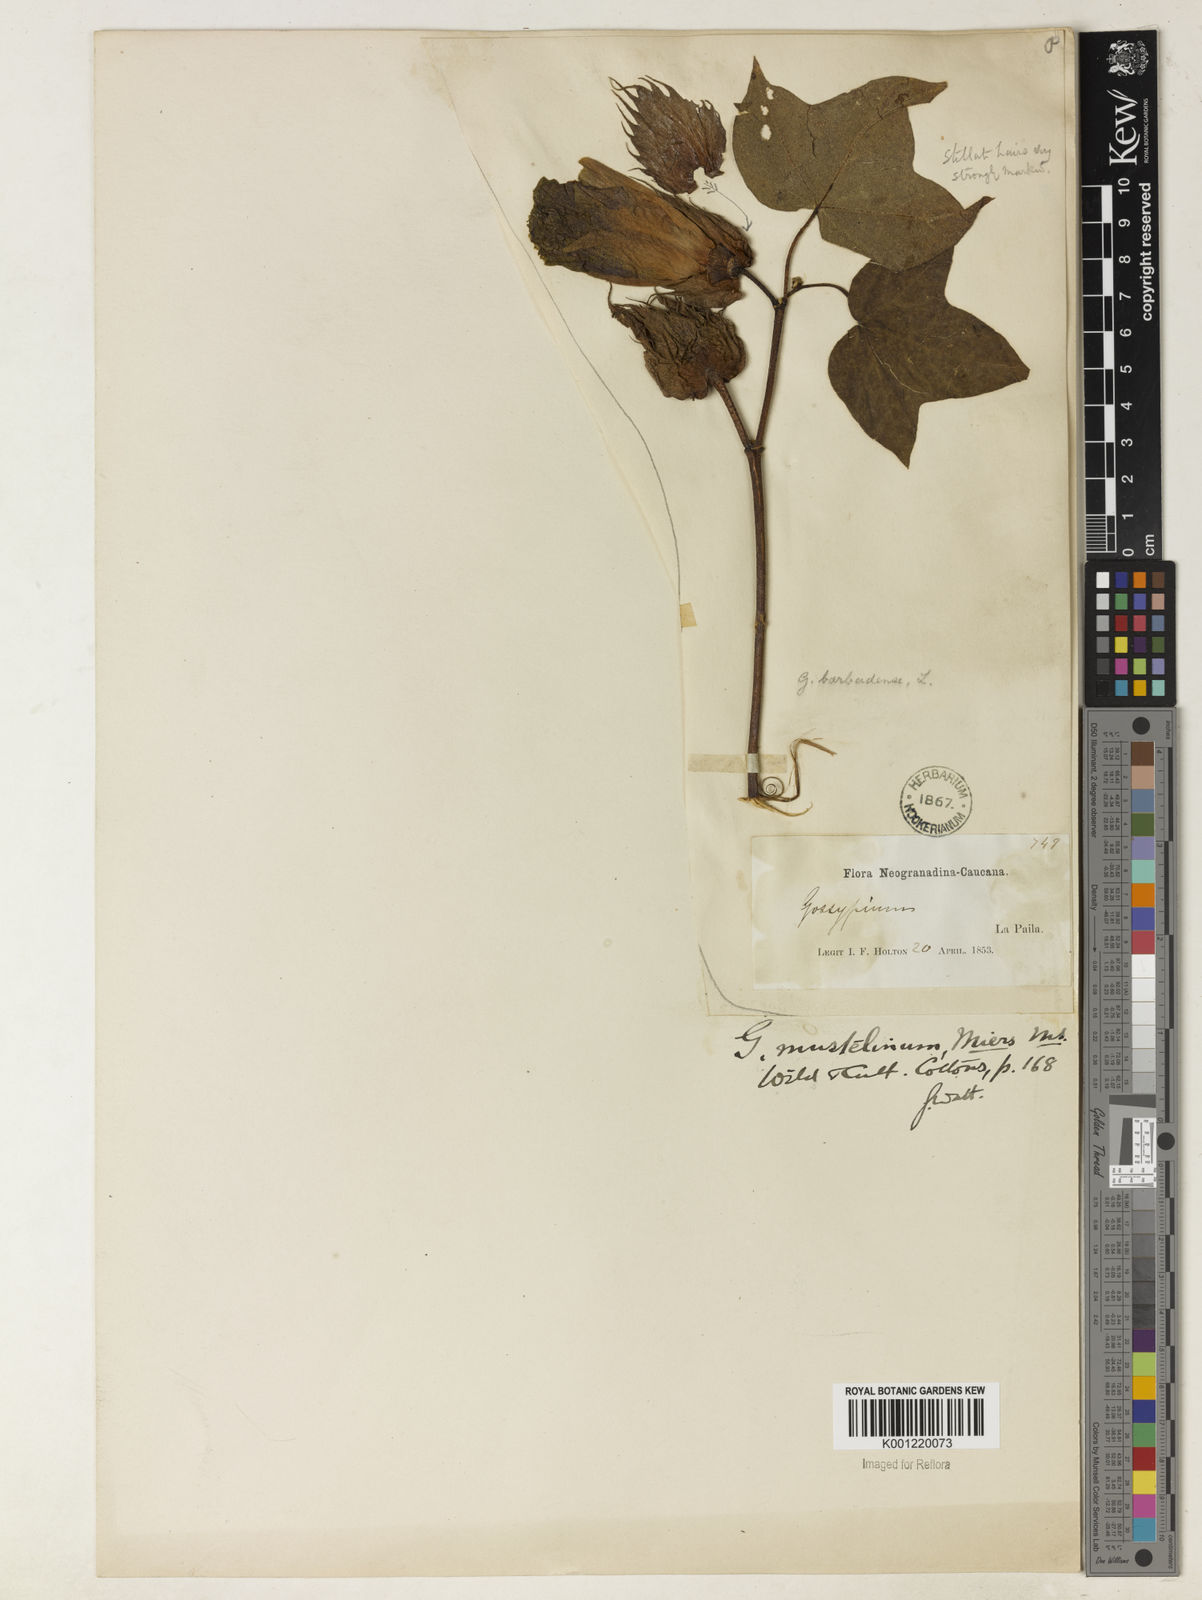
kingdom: Plantae
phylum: Tracheophyta
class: Magnoliopsida
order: Malvales
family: Malvaceae
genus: Gossypium
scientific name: Gossypium
